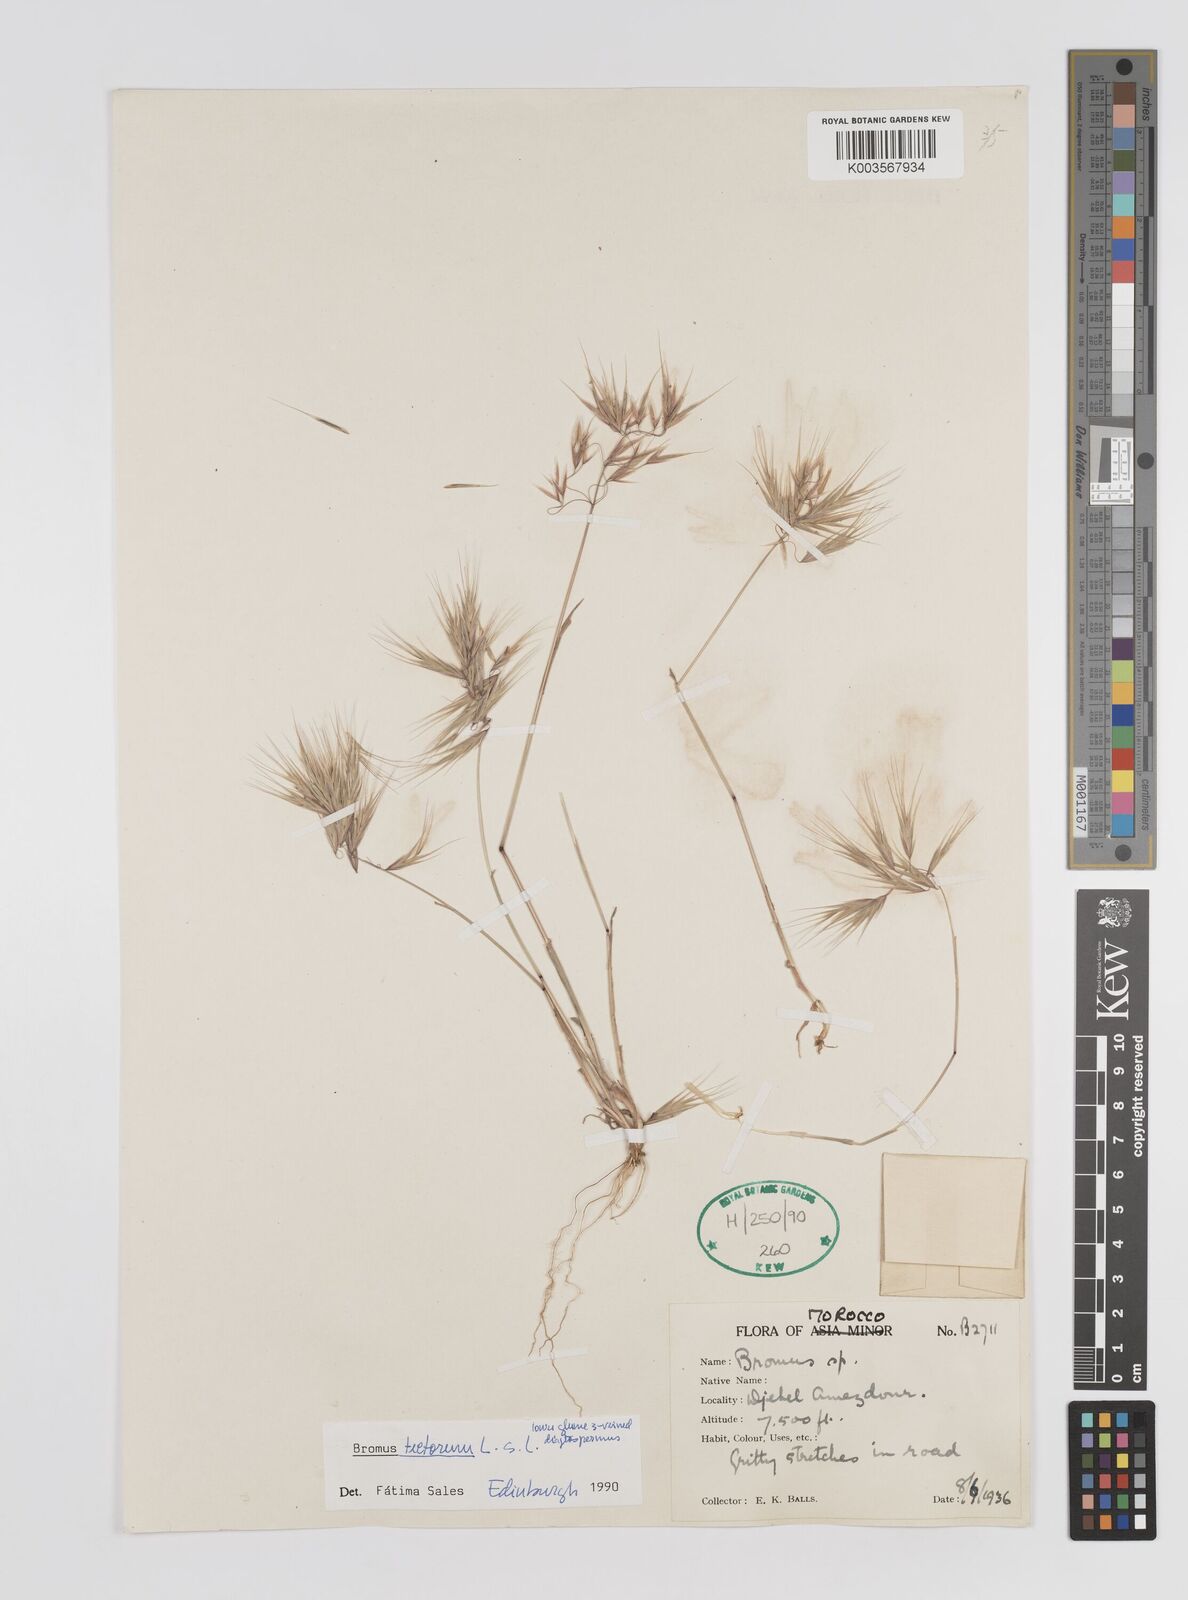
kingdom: Plantae
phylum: Tracheophyta
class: Liliopsida
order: Poales
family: Poaceae
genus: Bromus
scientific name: Bromus tectorum
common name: Cheatgrass
